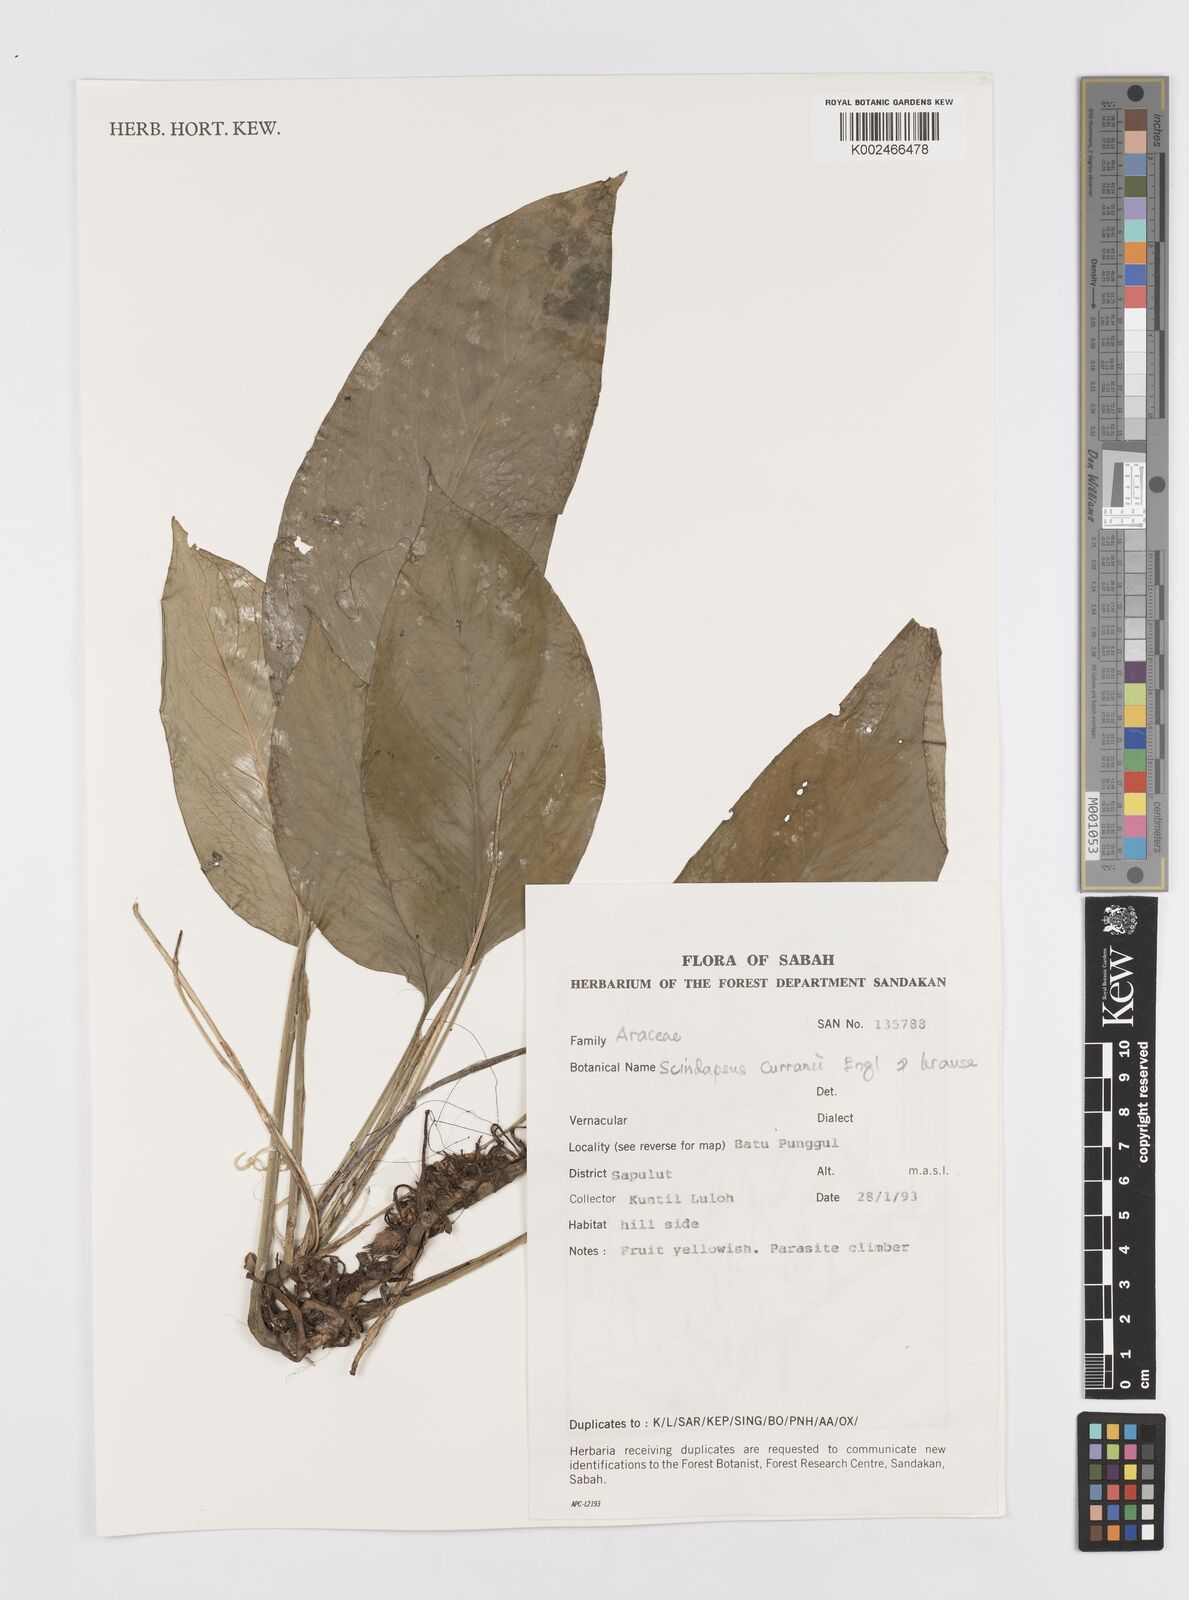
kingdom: Plantae
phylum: Tracheophyta
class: Liliopsida
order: Alismatales
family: Araceae
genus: Scindapsus
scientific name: Scindapsus curranii
